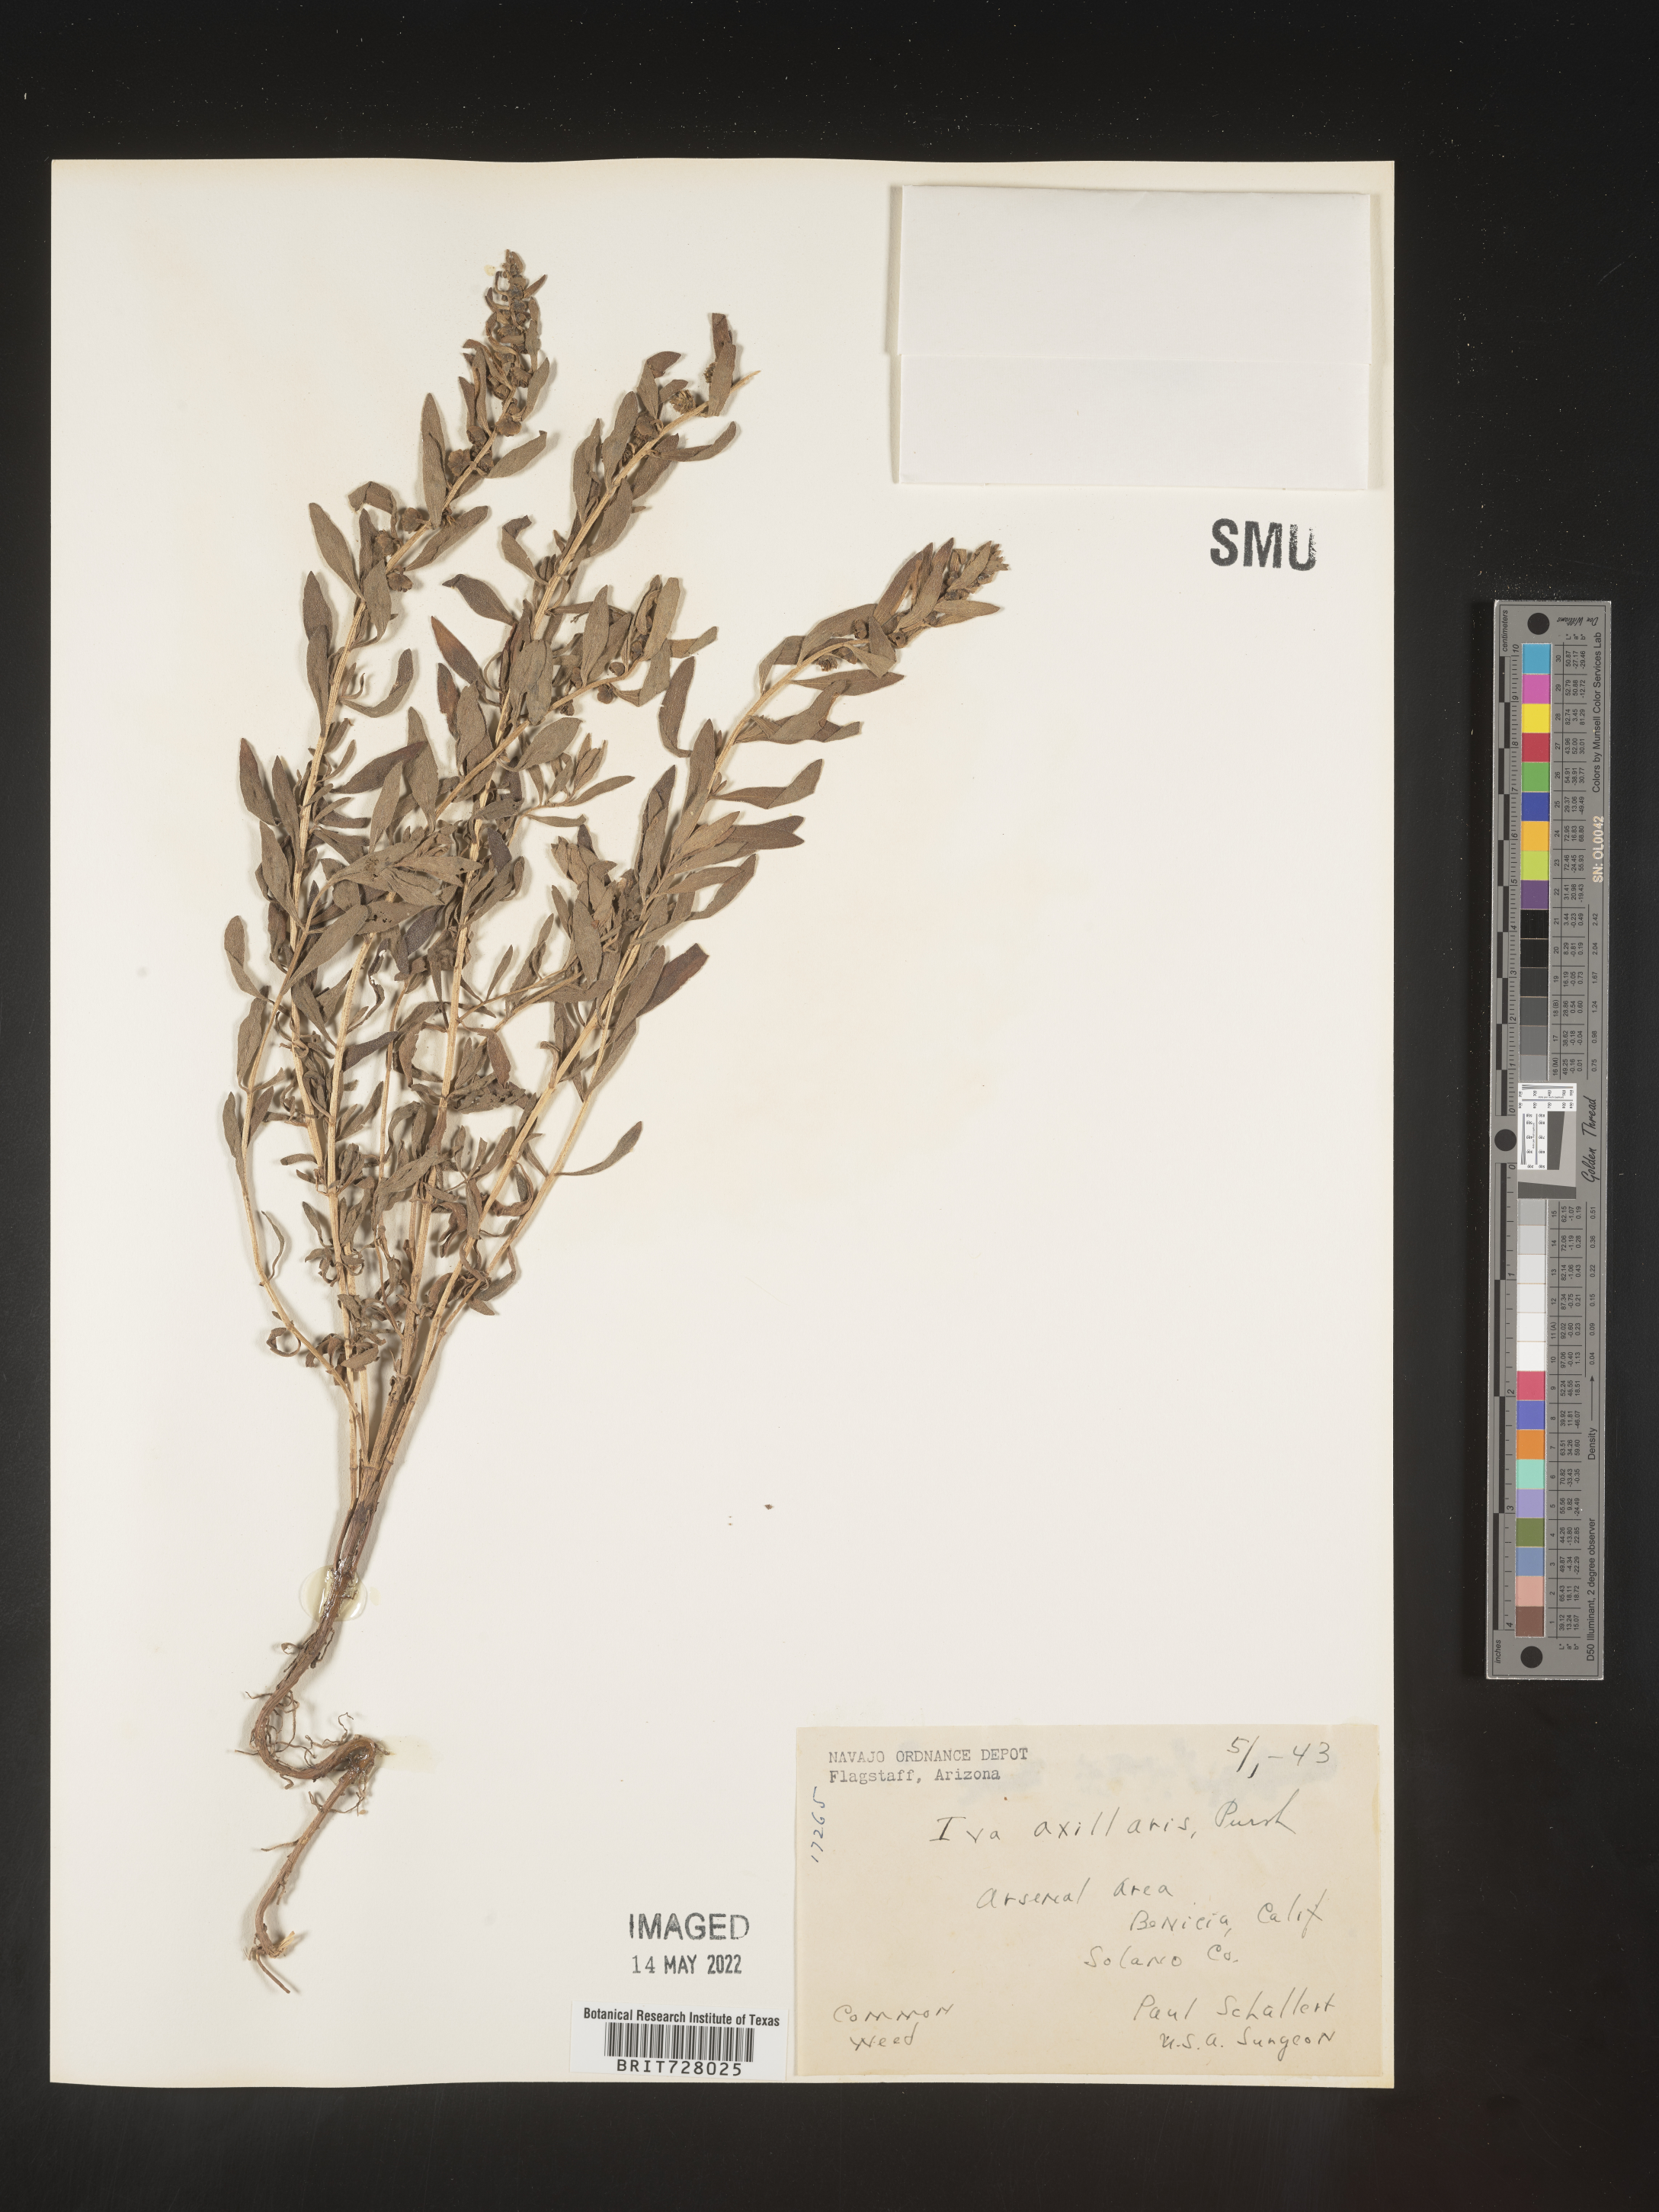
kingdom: Plantae
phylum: Tracheophyta
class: Magnoliopsida
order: Asterales
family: Asteraceae
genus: Iva
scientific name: Iva axillaris
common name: Poverty sumpweed
